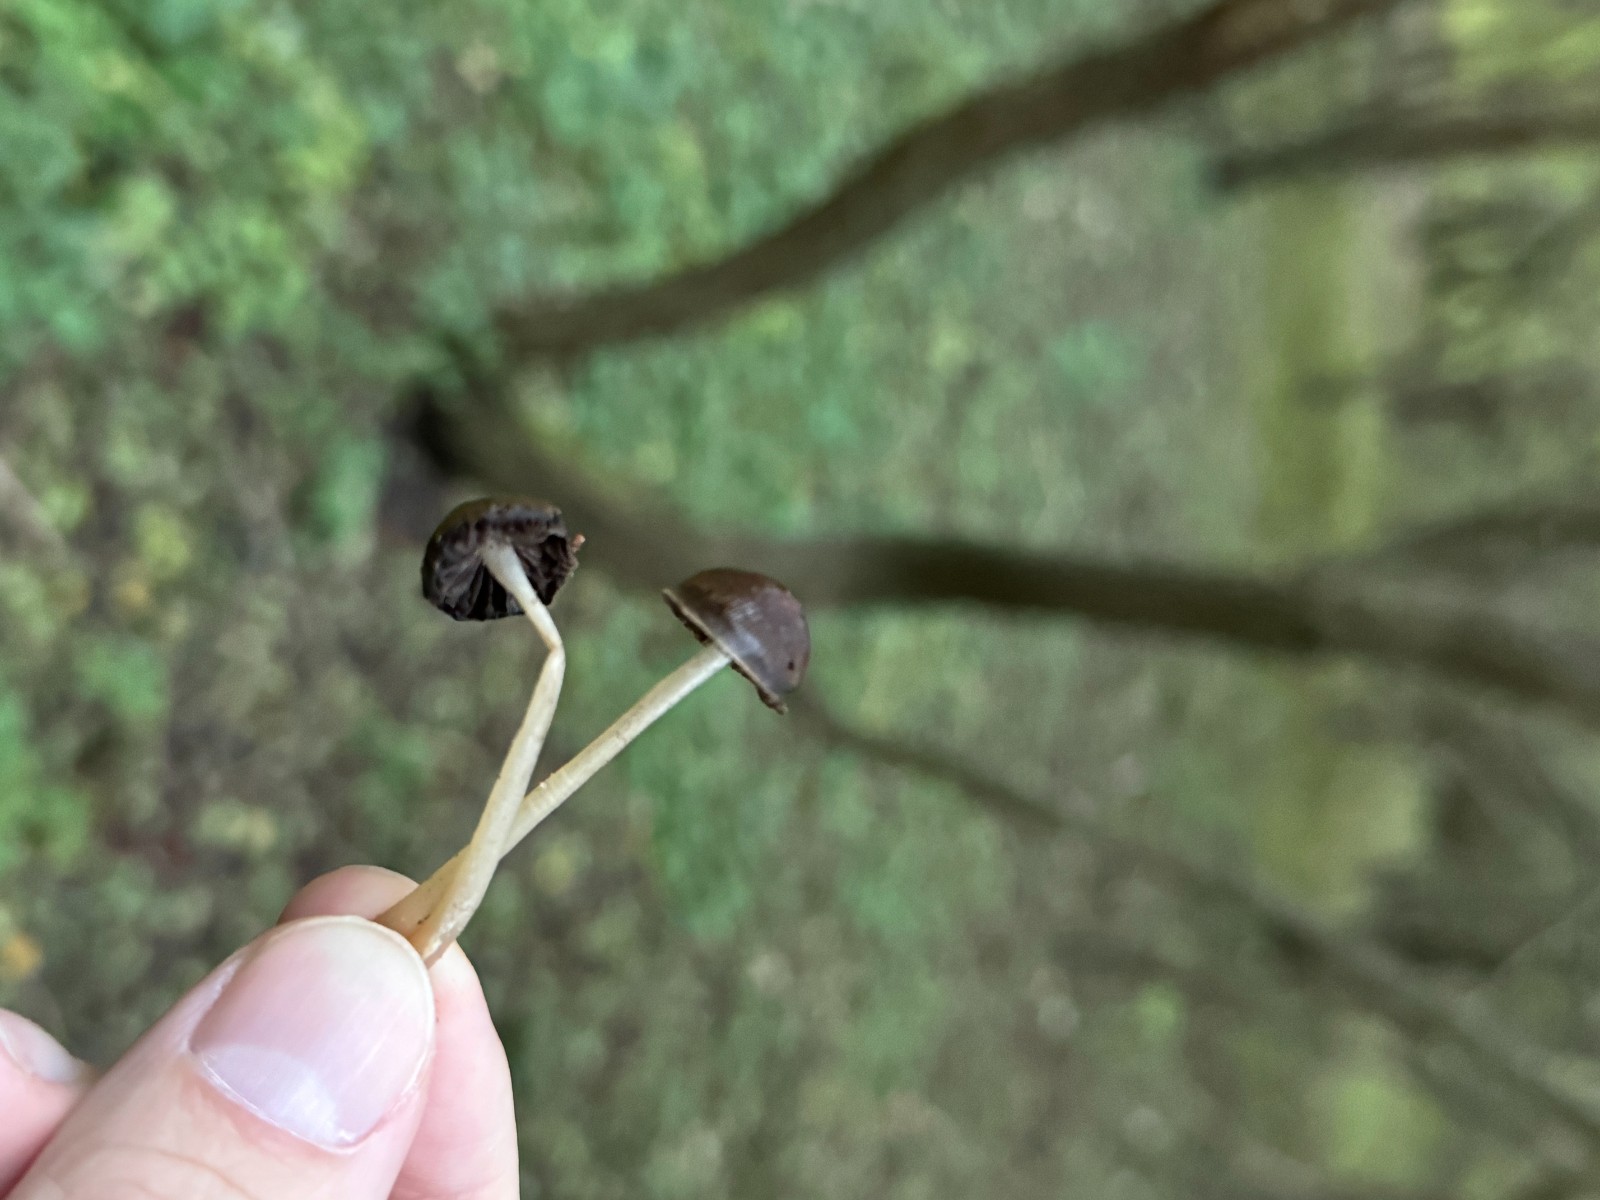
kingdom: Fungi
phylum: Basidiomycota
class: Agaricomycetes
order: Agaricales
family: Psathyrellaceae
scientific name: Psathyrellaceae
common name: mørkhatfamilien
